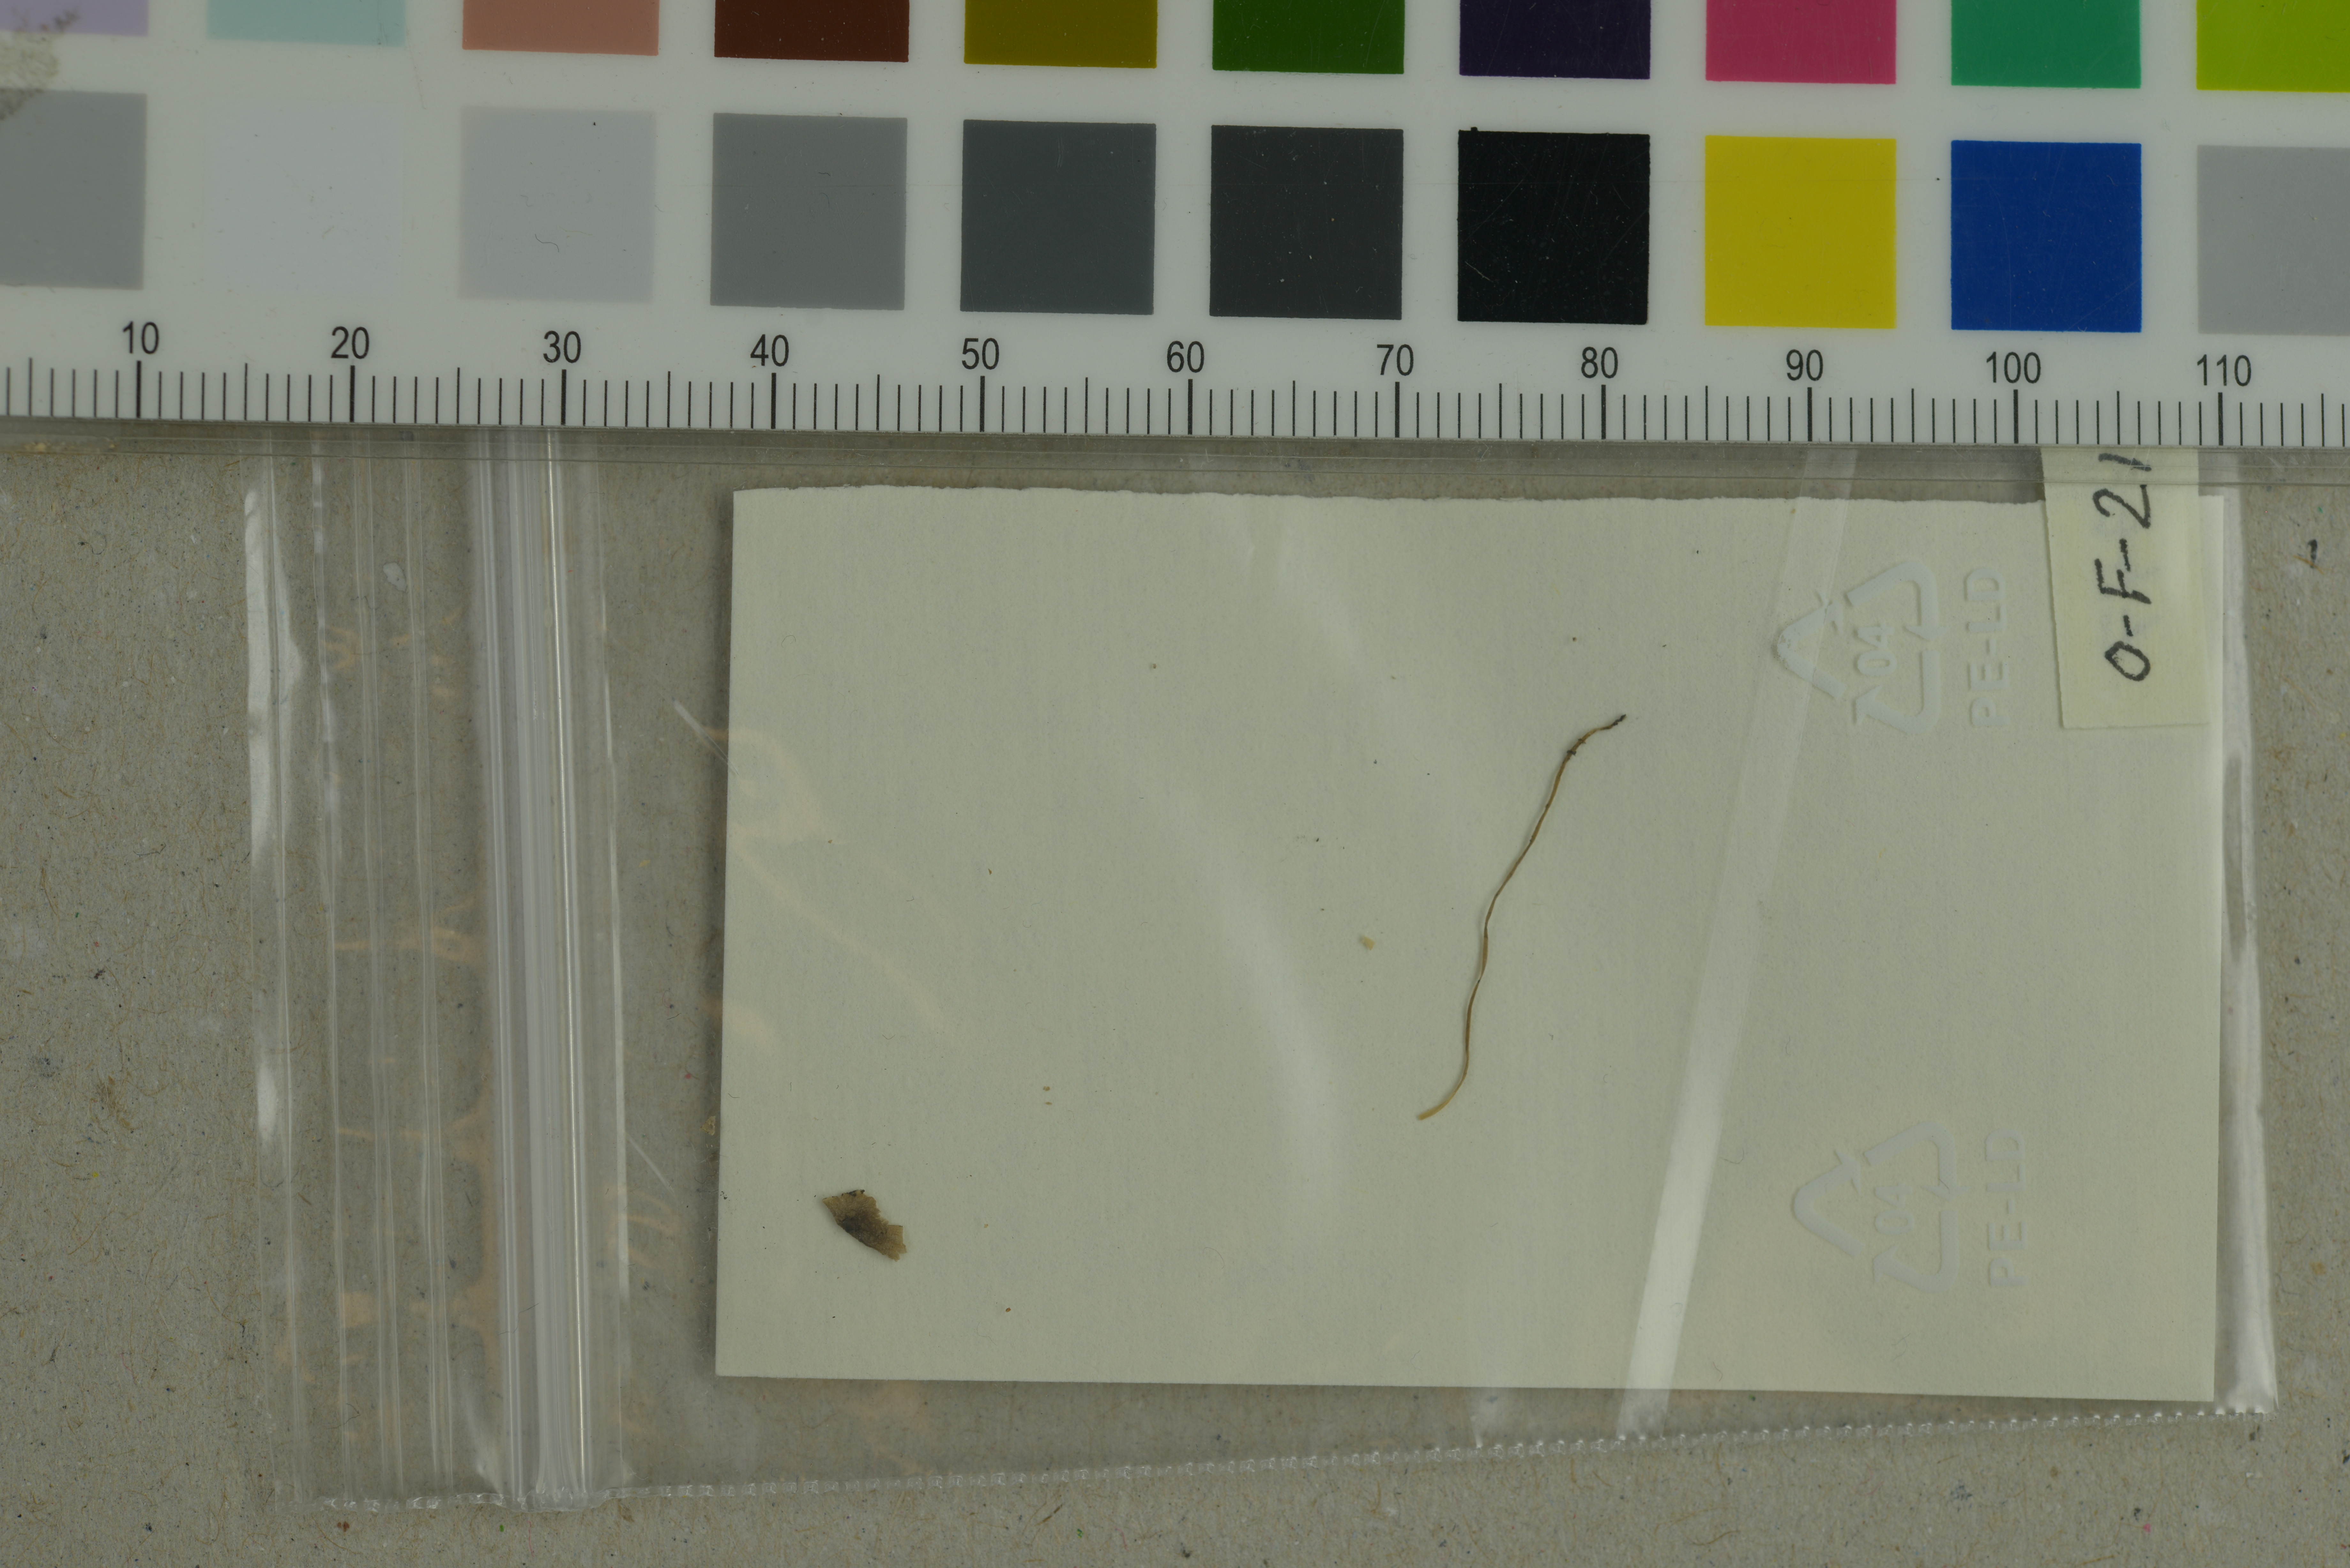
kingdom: Fungi
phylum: Basidiomycota
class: Agaricomycetes
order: Agaricales
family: Porotheleaceae
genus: Phloeomana
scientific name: Phloeomana atropapillata
